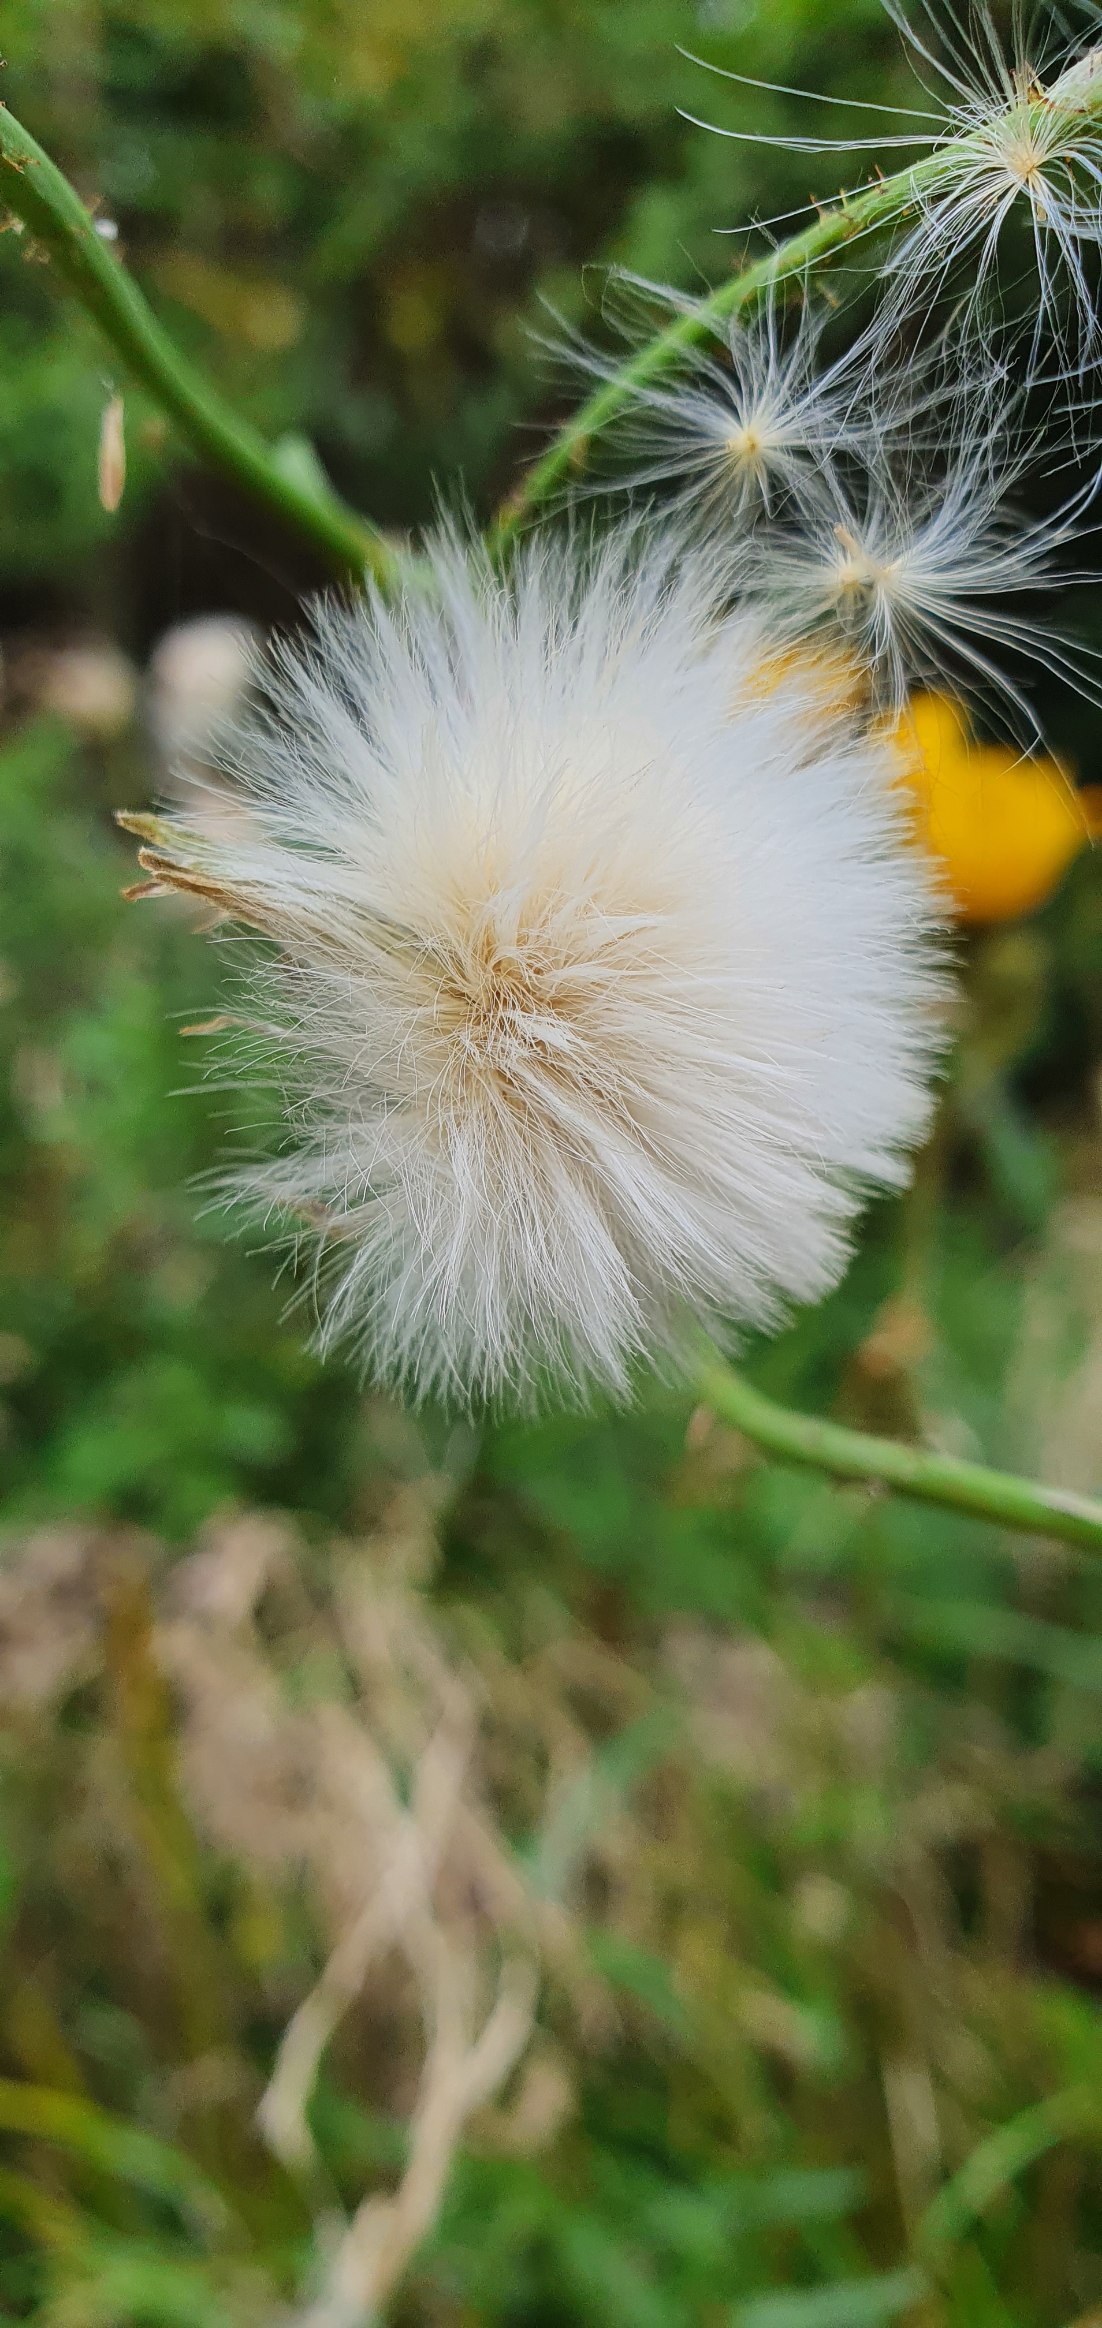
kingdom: Plantae
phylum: Tracheophyta
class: Magnoliopsida
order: Asterales
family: Asteraceae
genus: Sonchus
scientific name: Sonchus arvensis
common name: Ager-svinemælk
